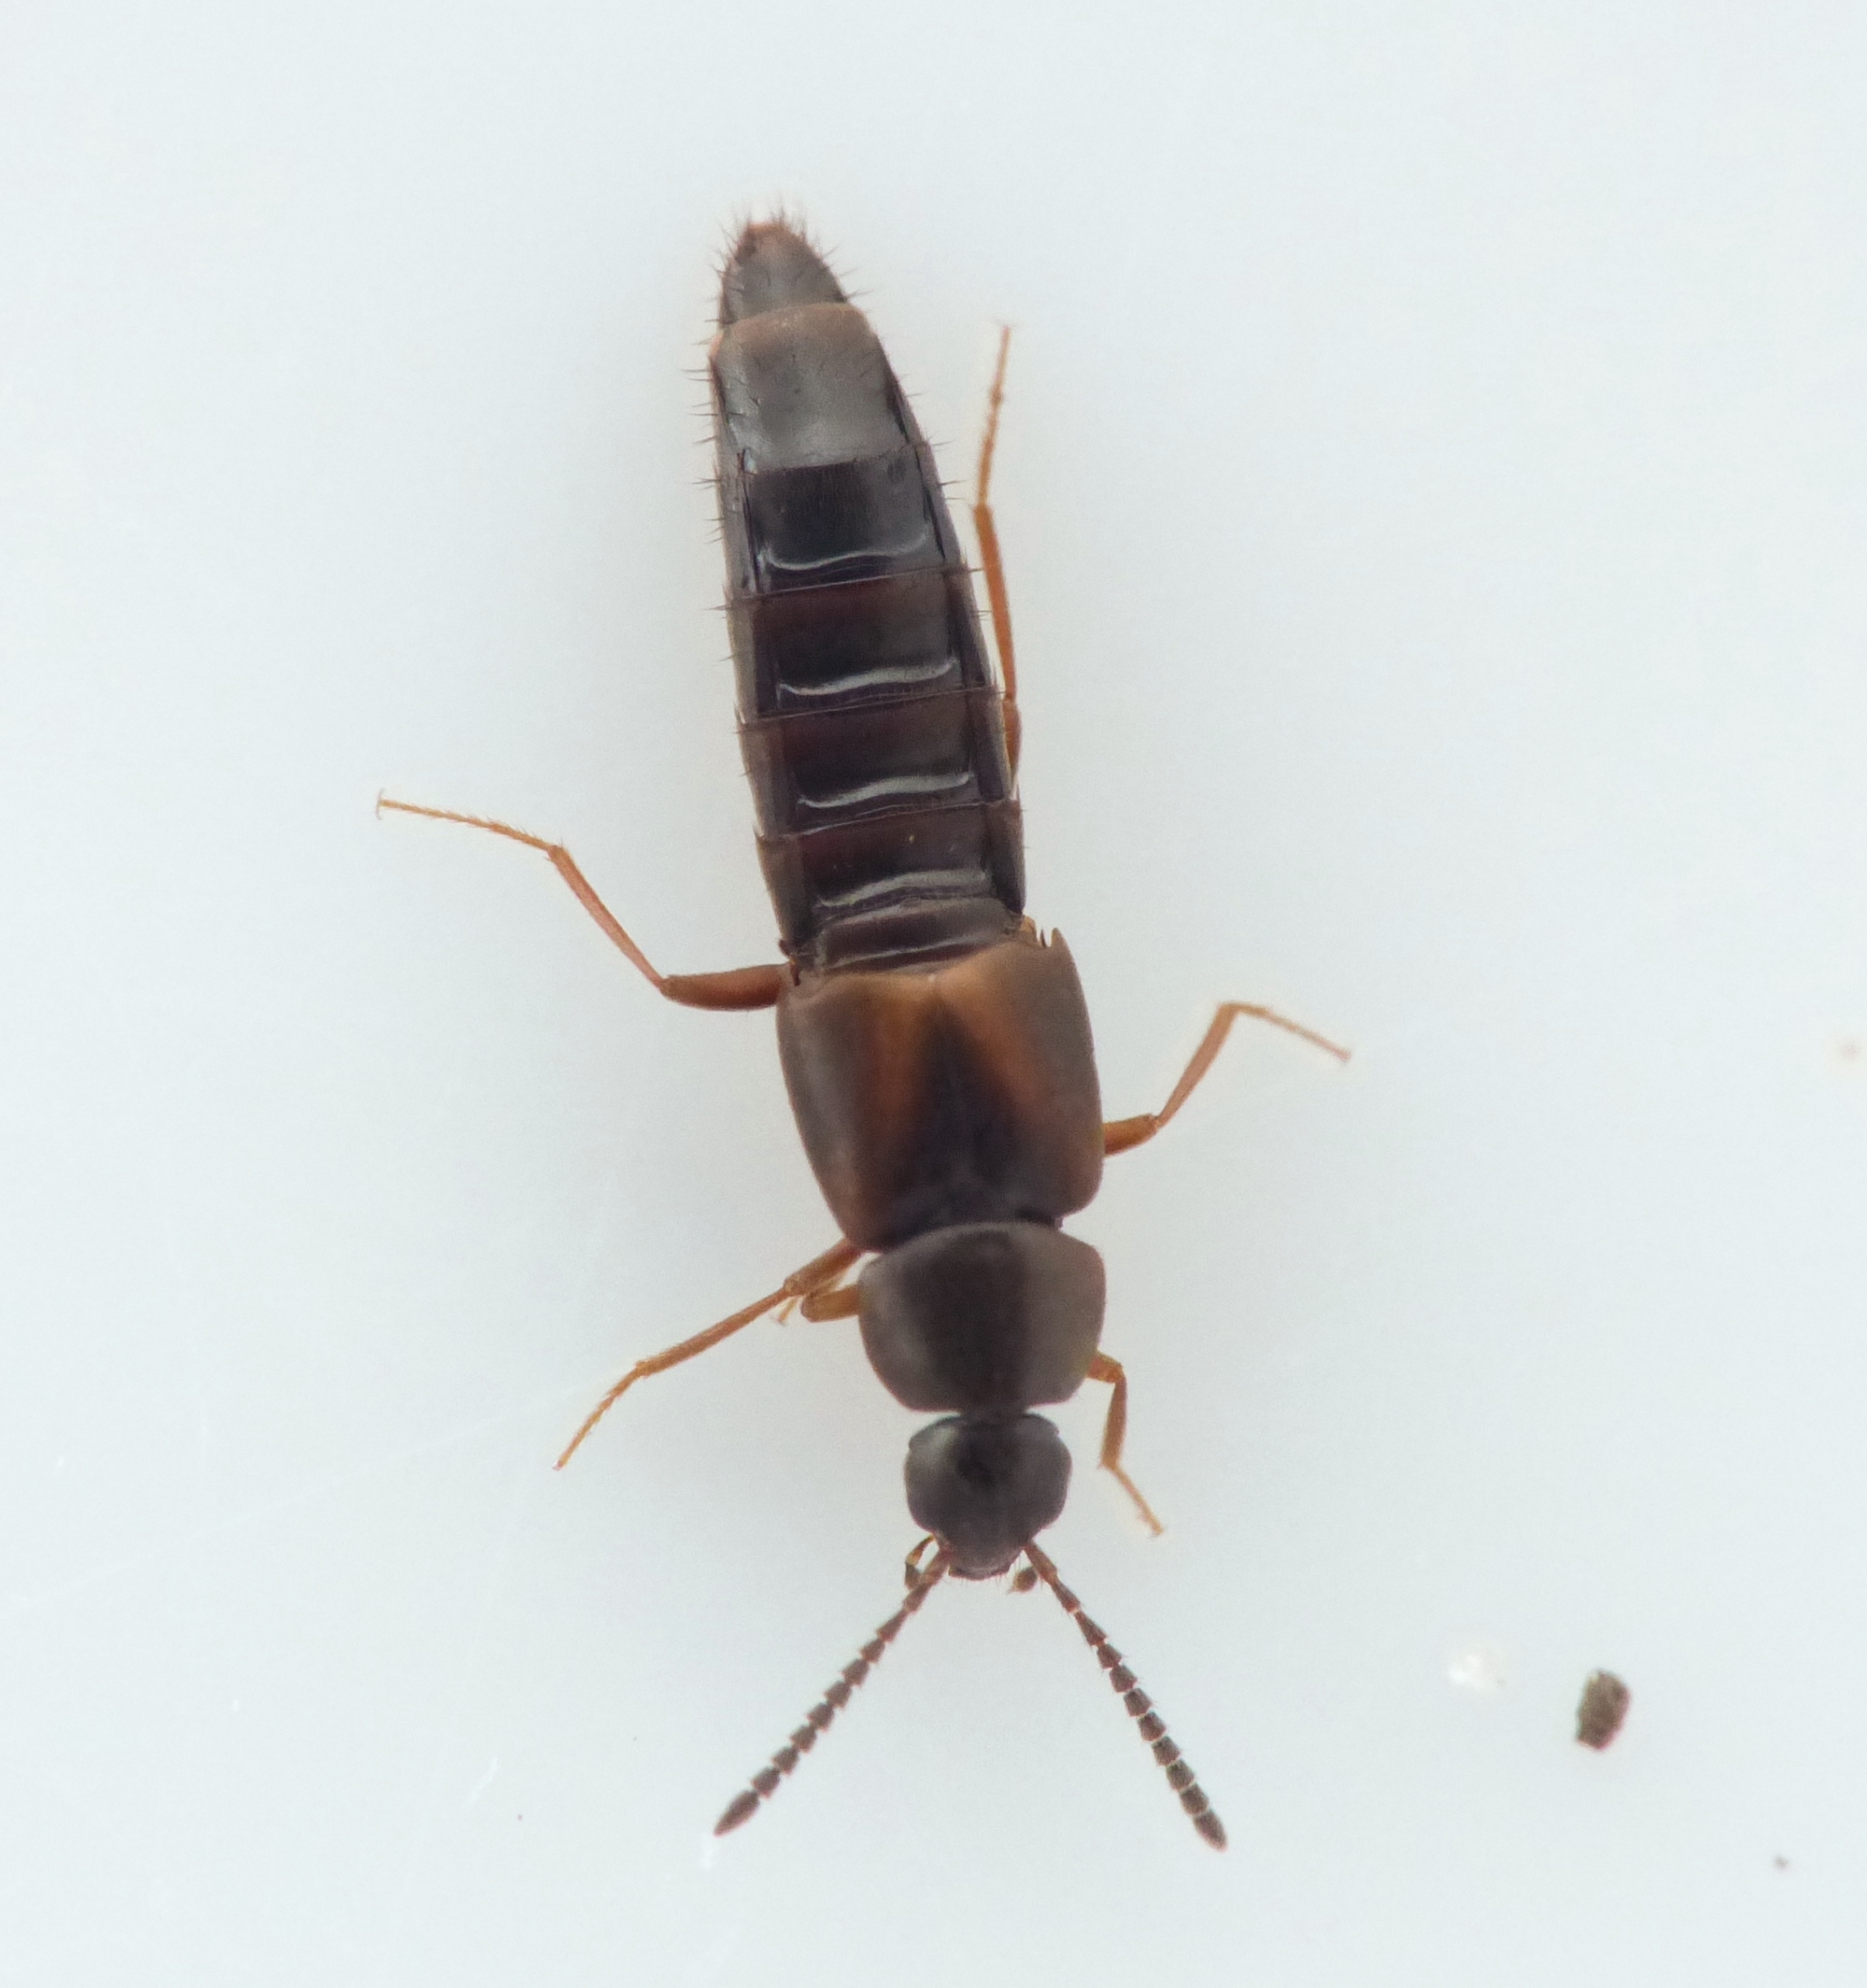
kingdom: Animalia
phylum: Arthropoda
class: Insecta
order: Coleoptera
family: Staphylinidae
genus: Oxypoda
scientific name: Oxypoda vittata
